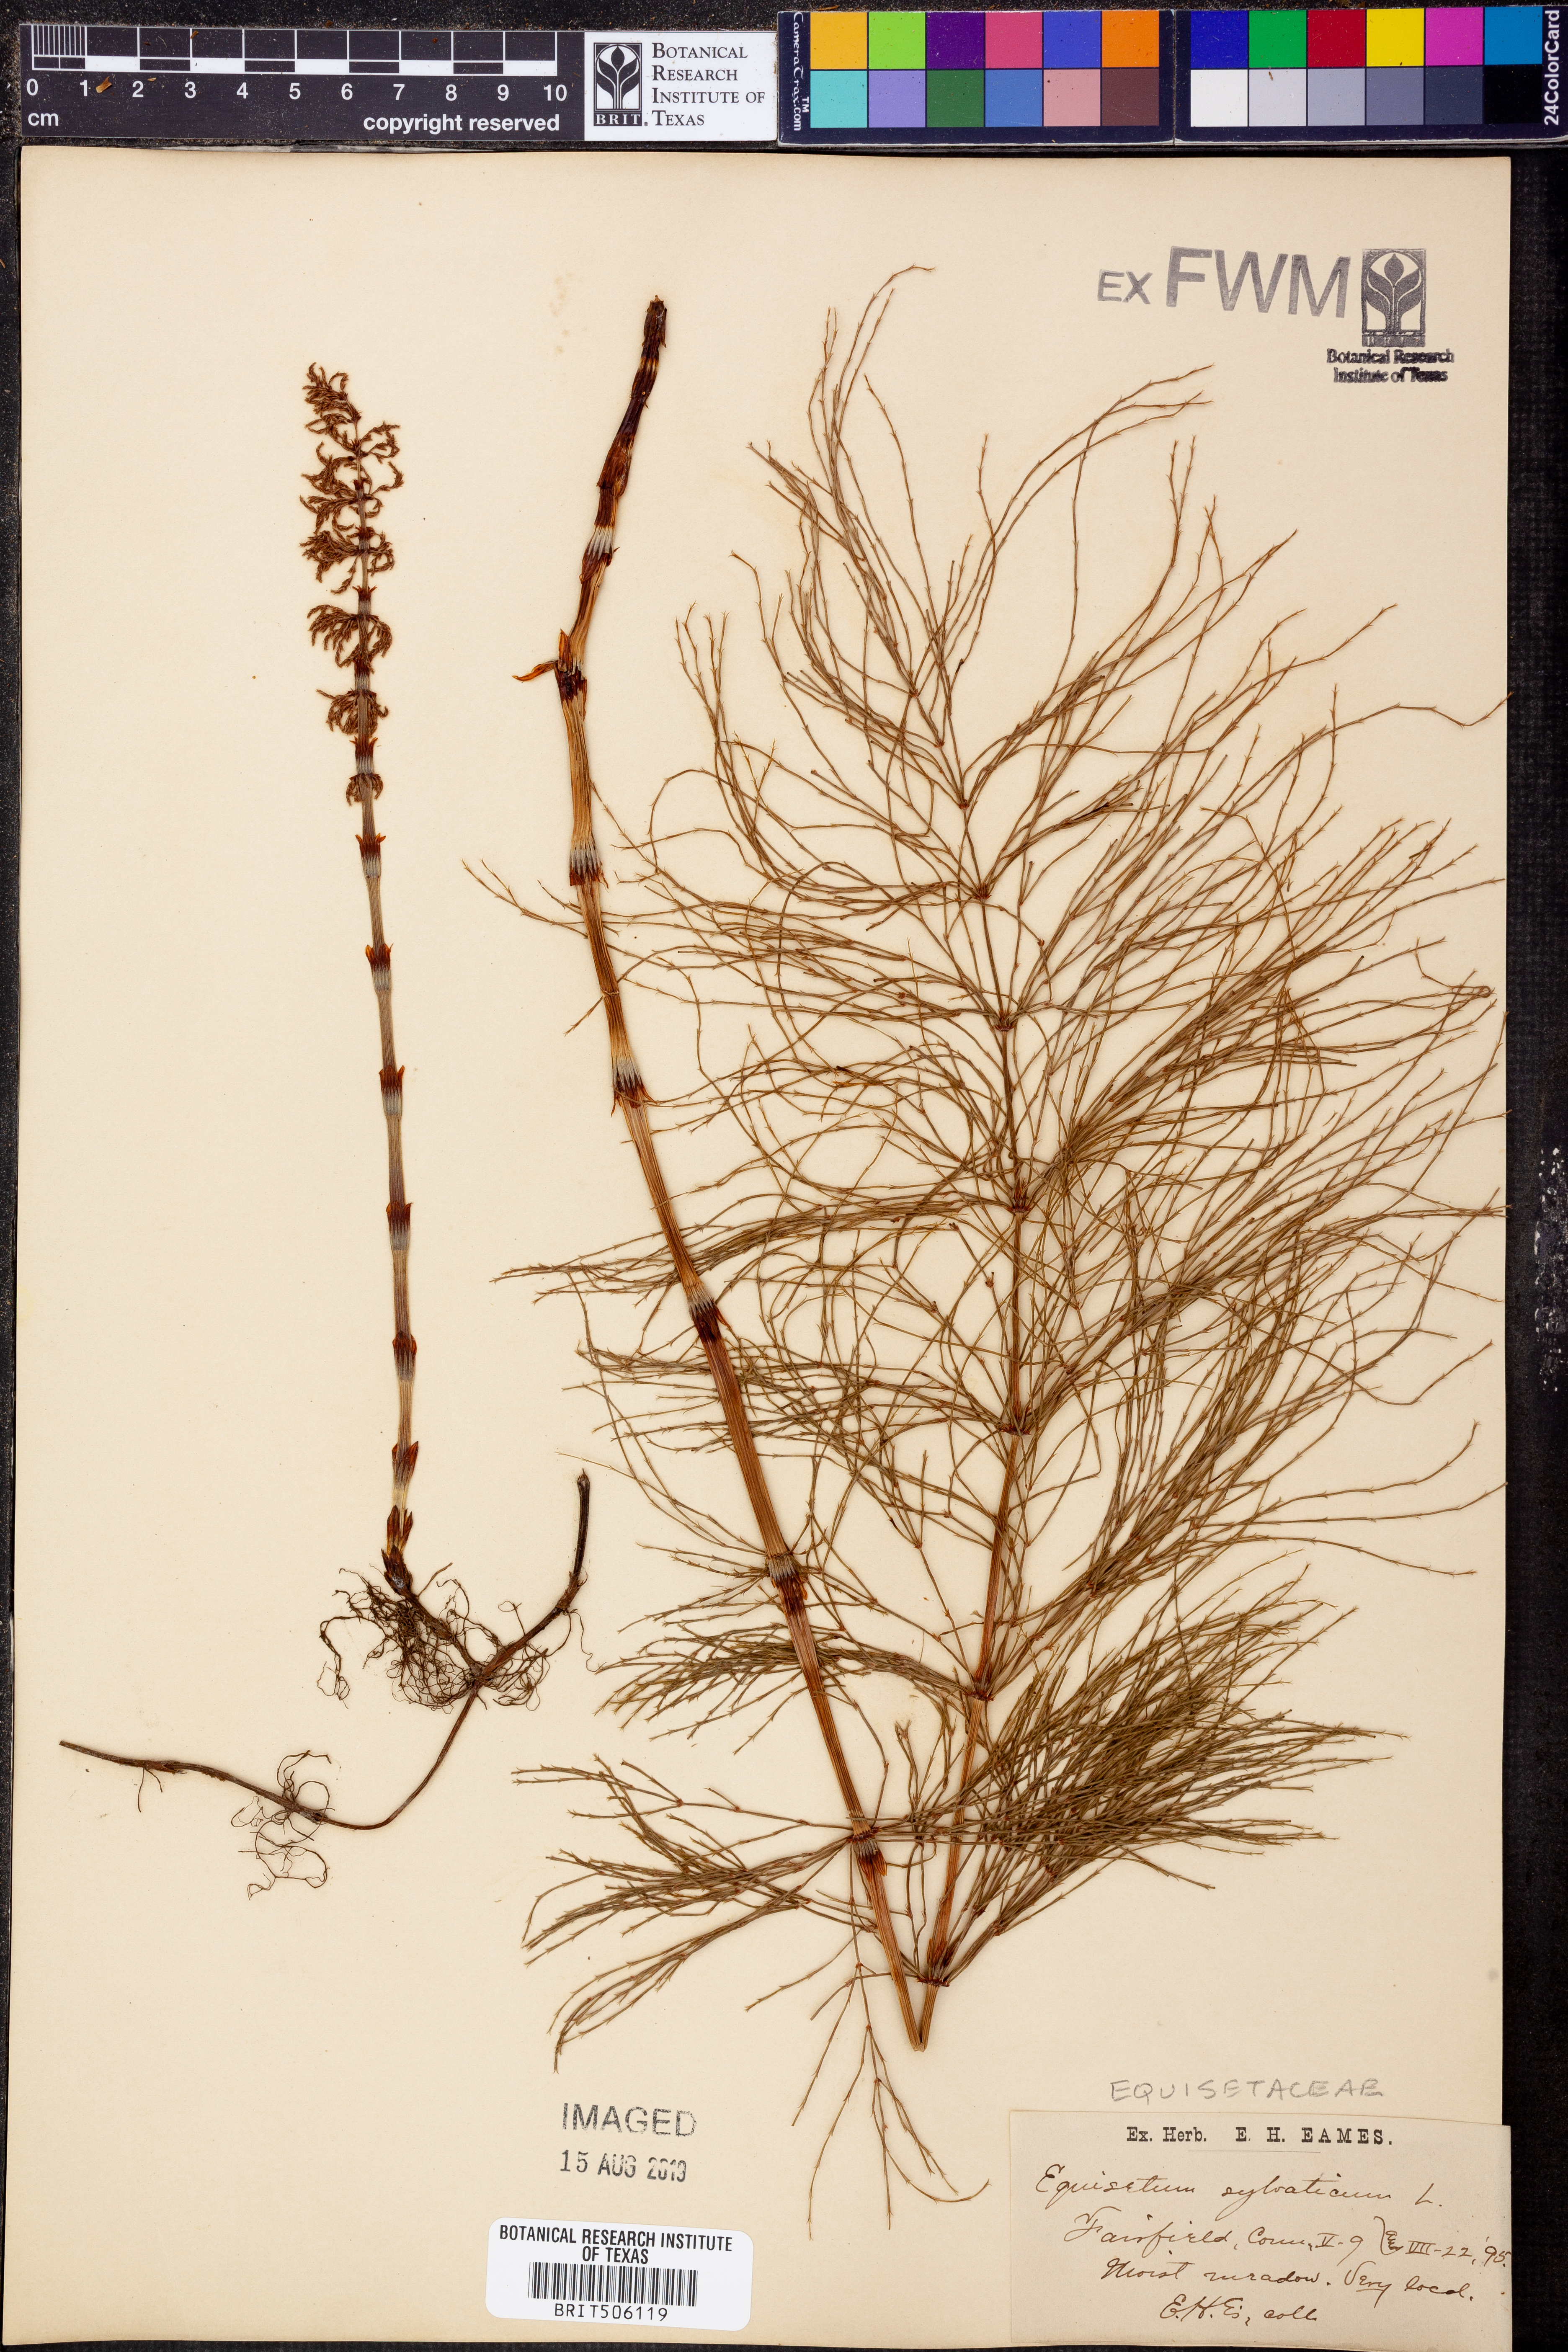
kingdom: Plantae
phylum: Tracheophyta
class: Polypodiopsida
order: Equisetales
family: Equisetaceae
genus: Equisetum
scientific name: Equisetum sylvaticum
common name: Wood horsetail
